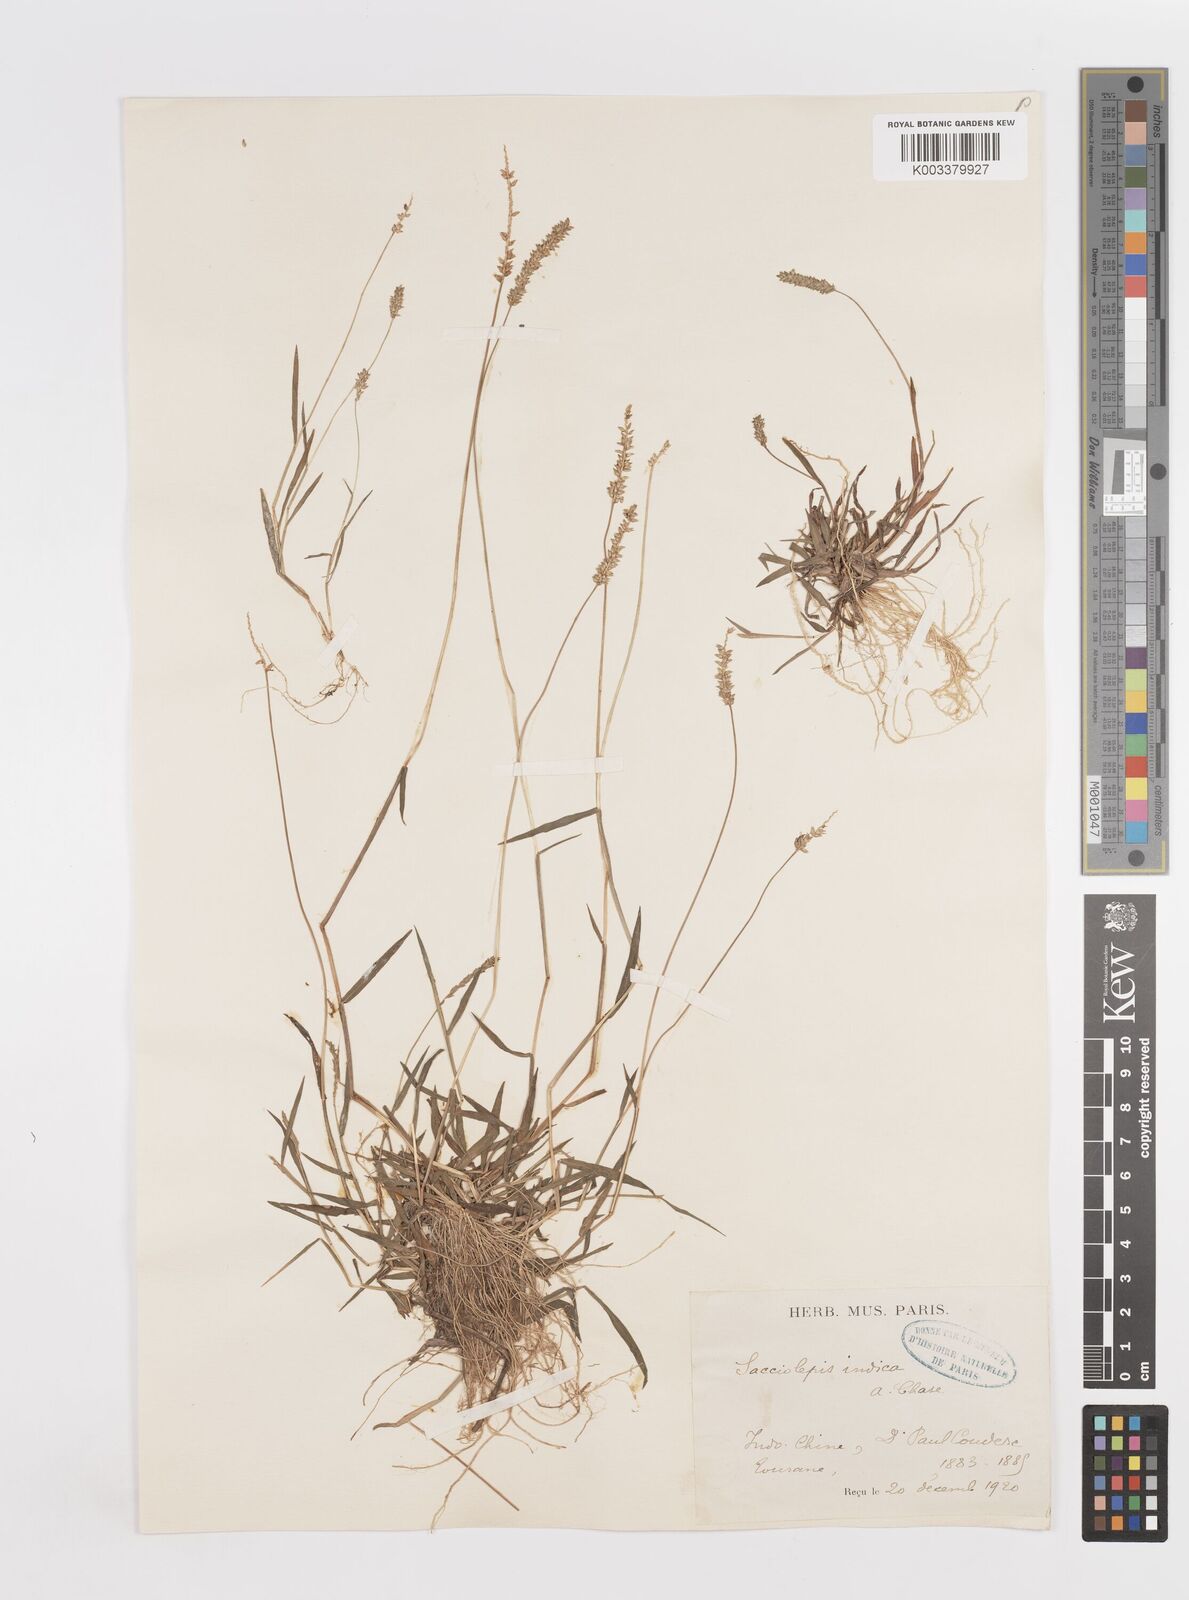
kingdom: Plantae
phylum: Tracheophyta
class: Liliopsida
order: Poales
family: Poaceae
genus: Sacciolepis
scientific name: Sacciolepis indica
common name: Glenwoodgrass
